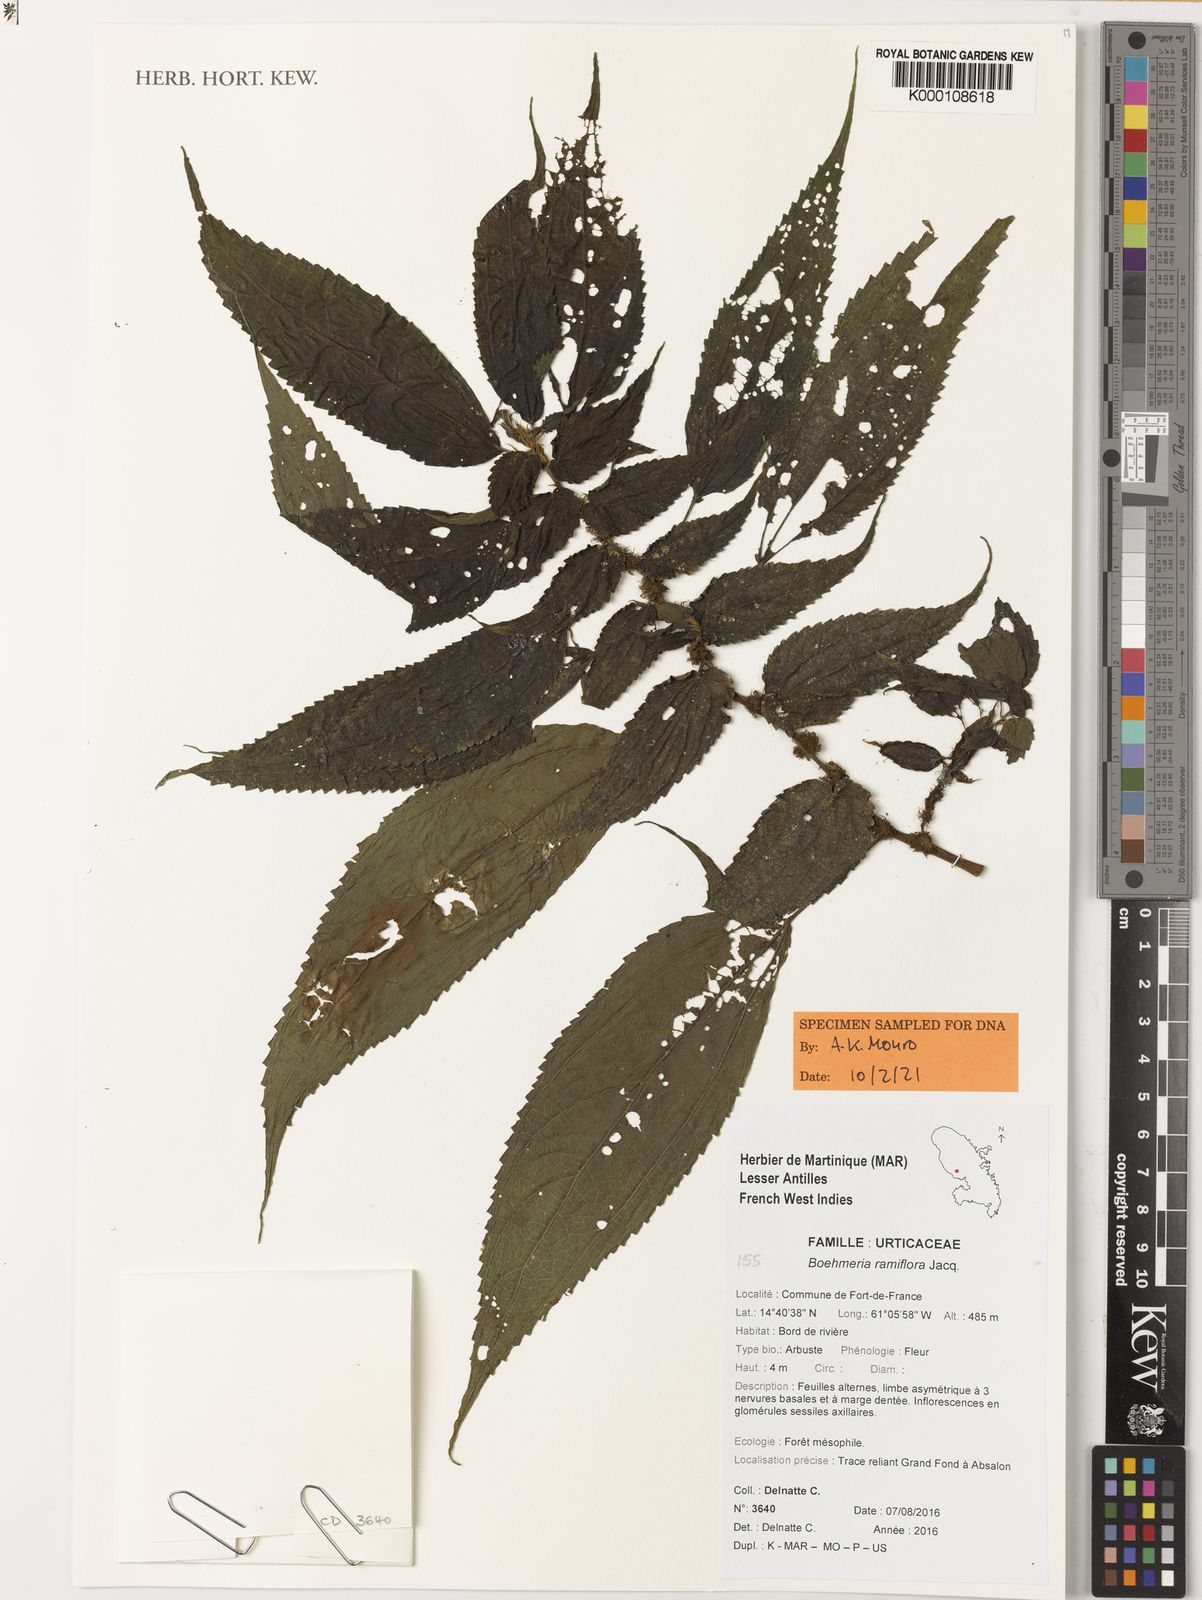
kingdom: Plantae
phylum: Tracheophyta
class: Magnoliopsida
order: Malpighiales
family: Ochnaceae
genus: Rhabdophyllum
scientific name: Rhabdophyllum affine
